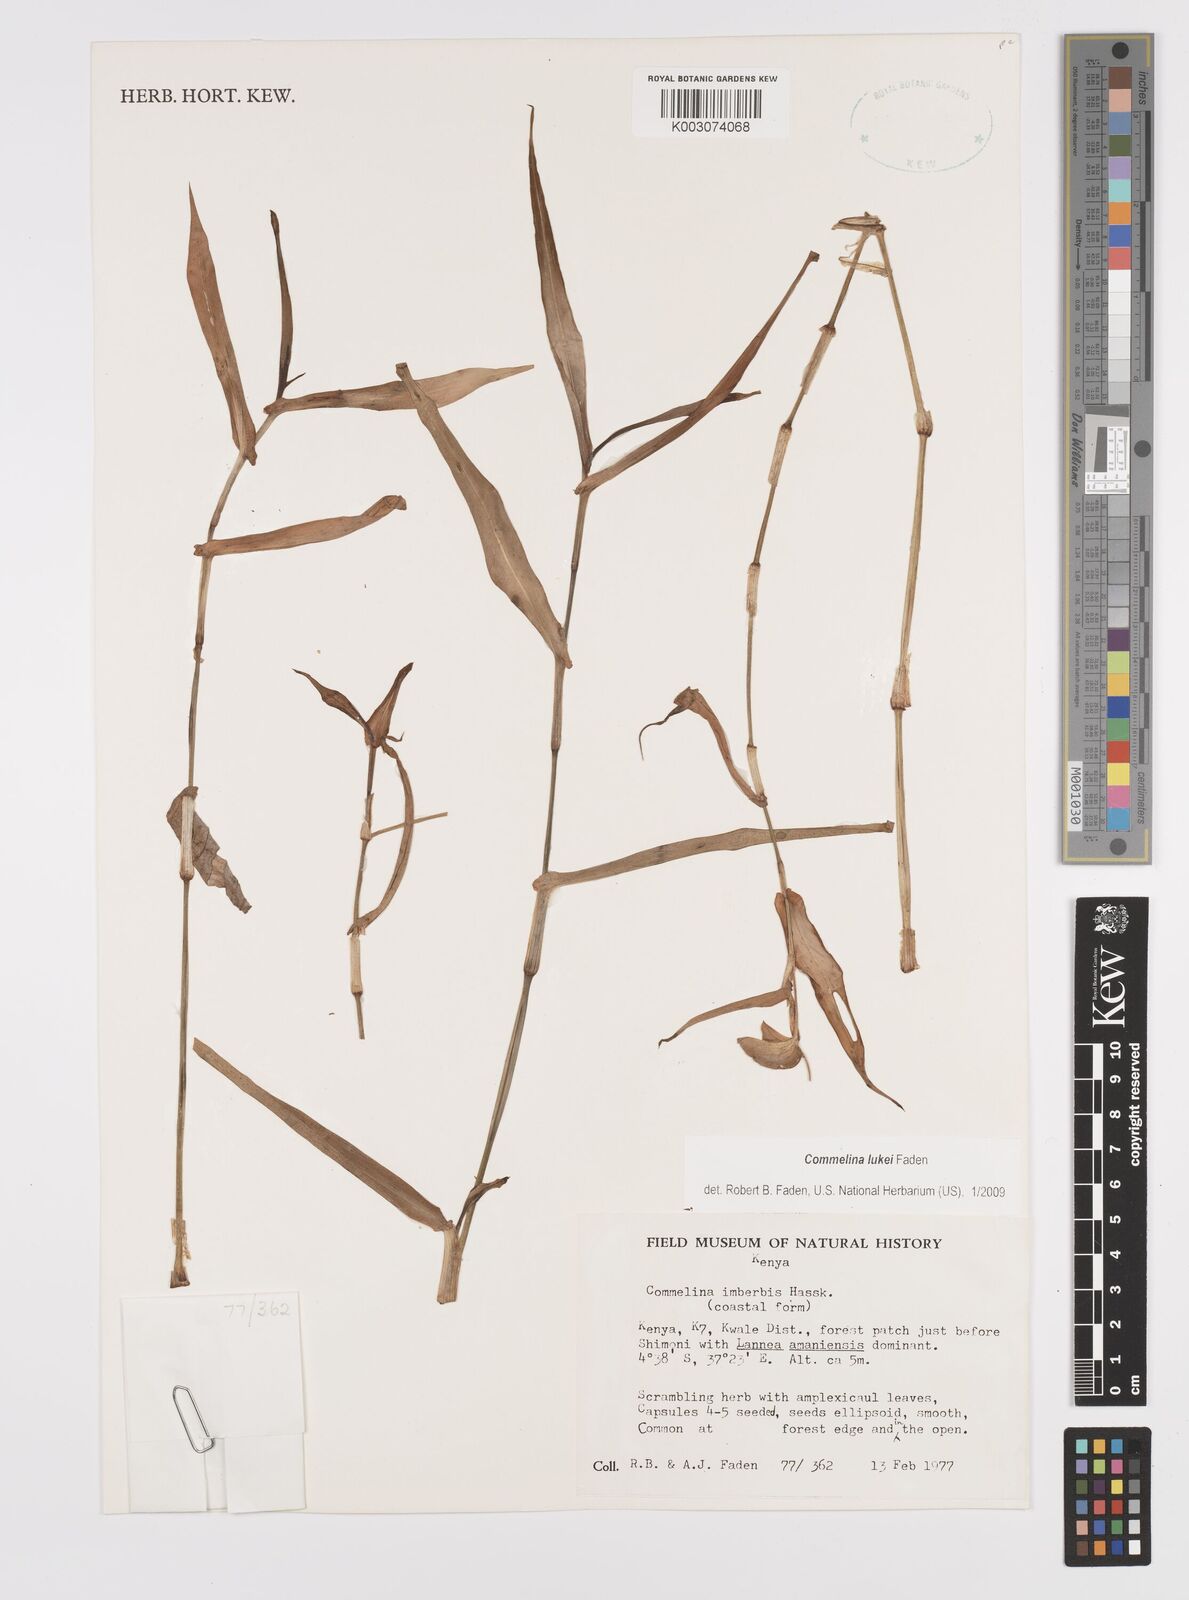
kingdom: Plantae
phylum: Tracheophyta
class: Liliopsida
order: Commelinales
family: Commelinaceae
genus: Commelina
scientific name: Commelina lukei
